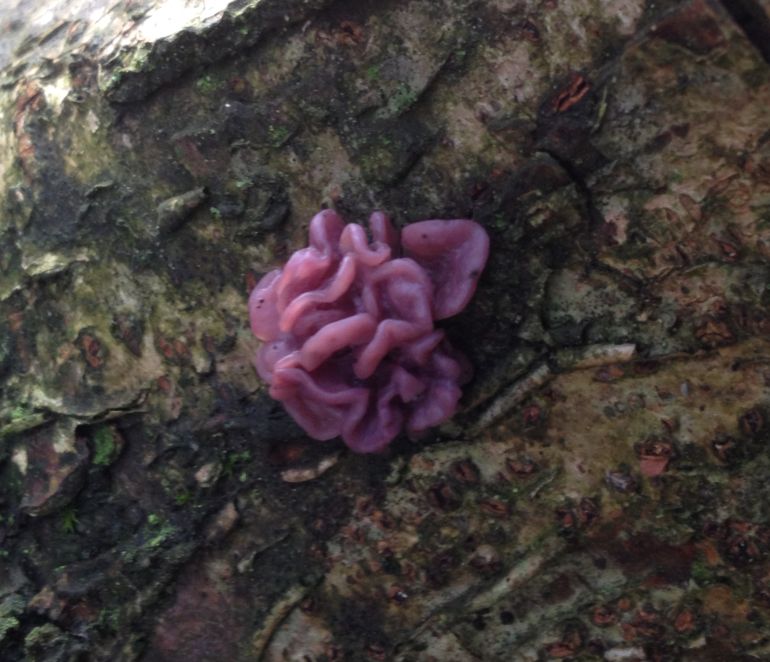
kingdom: Fungi
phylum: Ascomycota
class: Leotiomycetes
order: Helotiales
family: Gelatinodiscaceae
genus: Ascocoryne
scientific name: Ascocoryne sarcoides
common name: rødlilla sejskive
